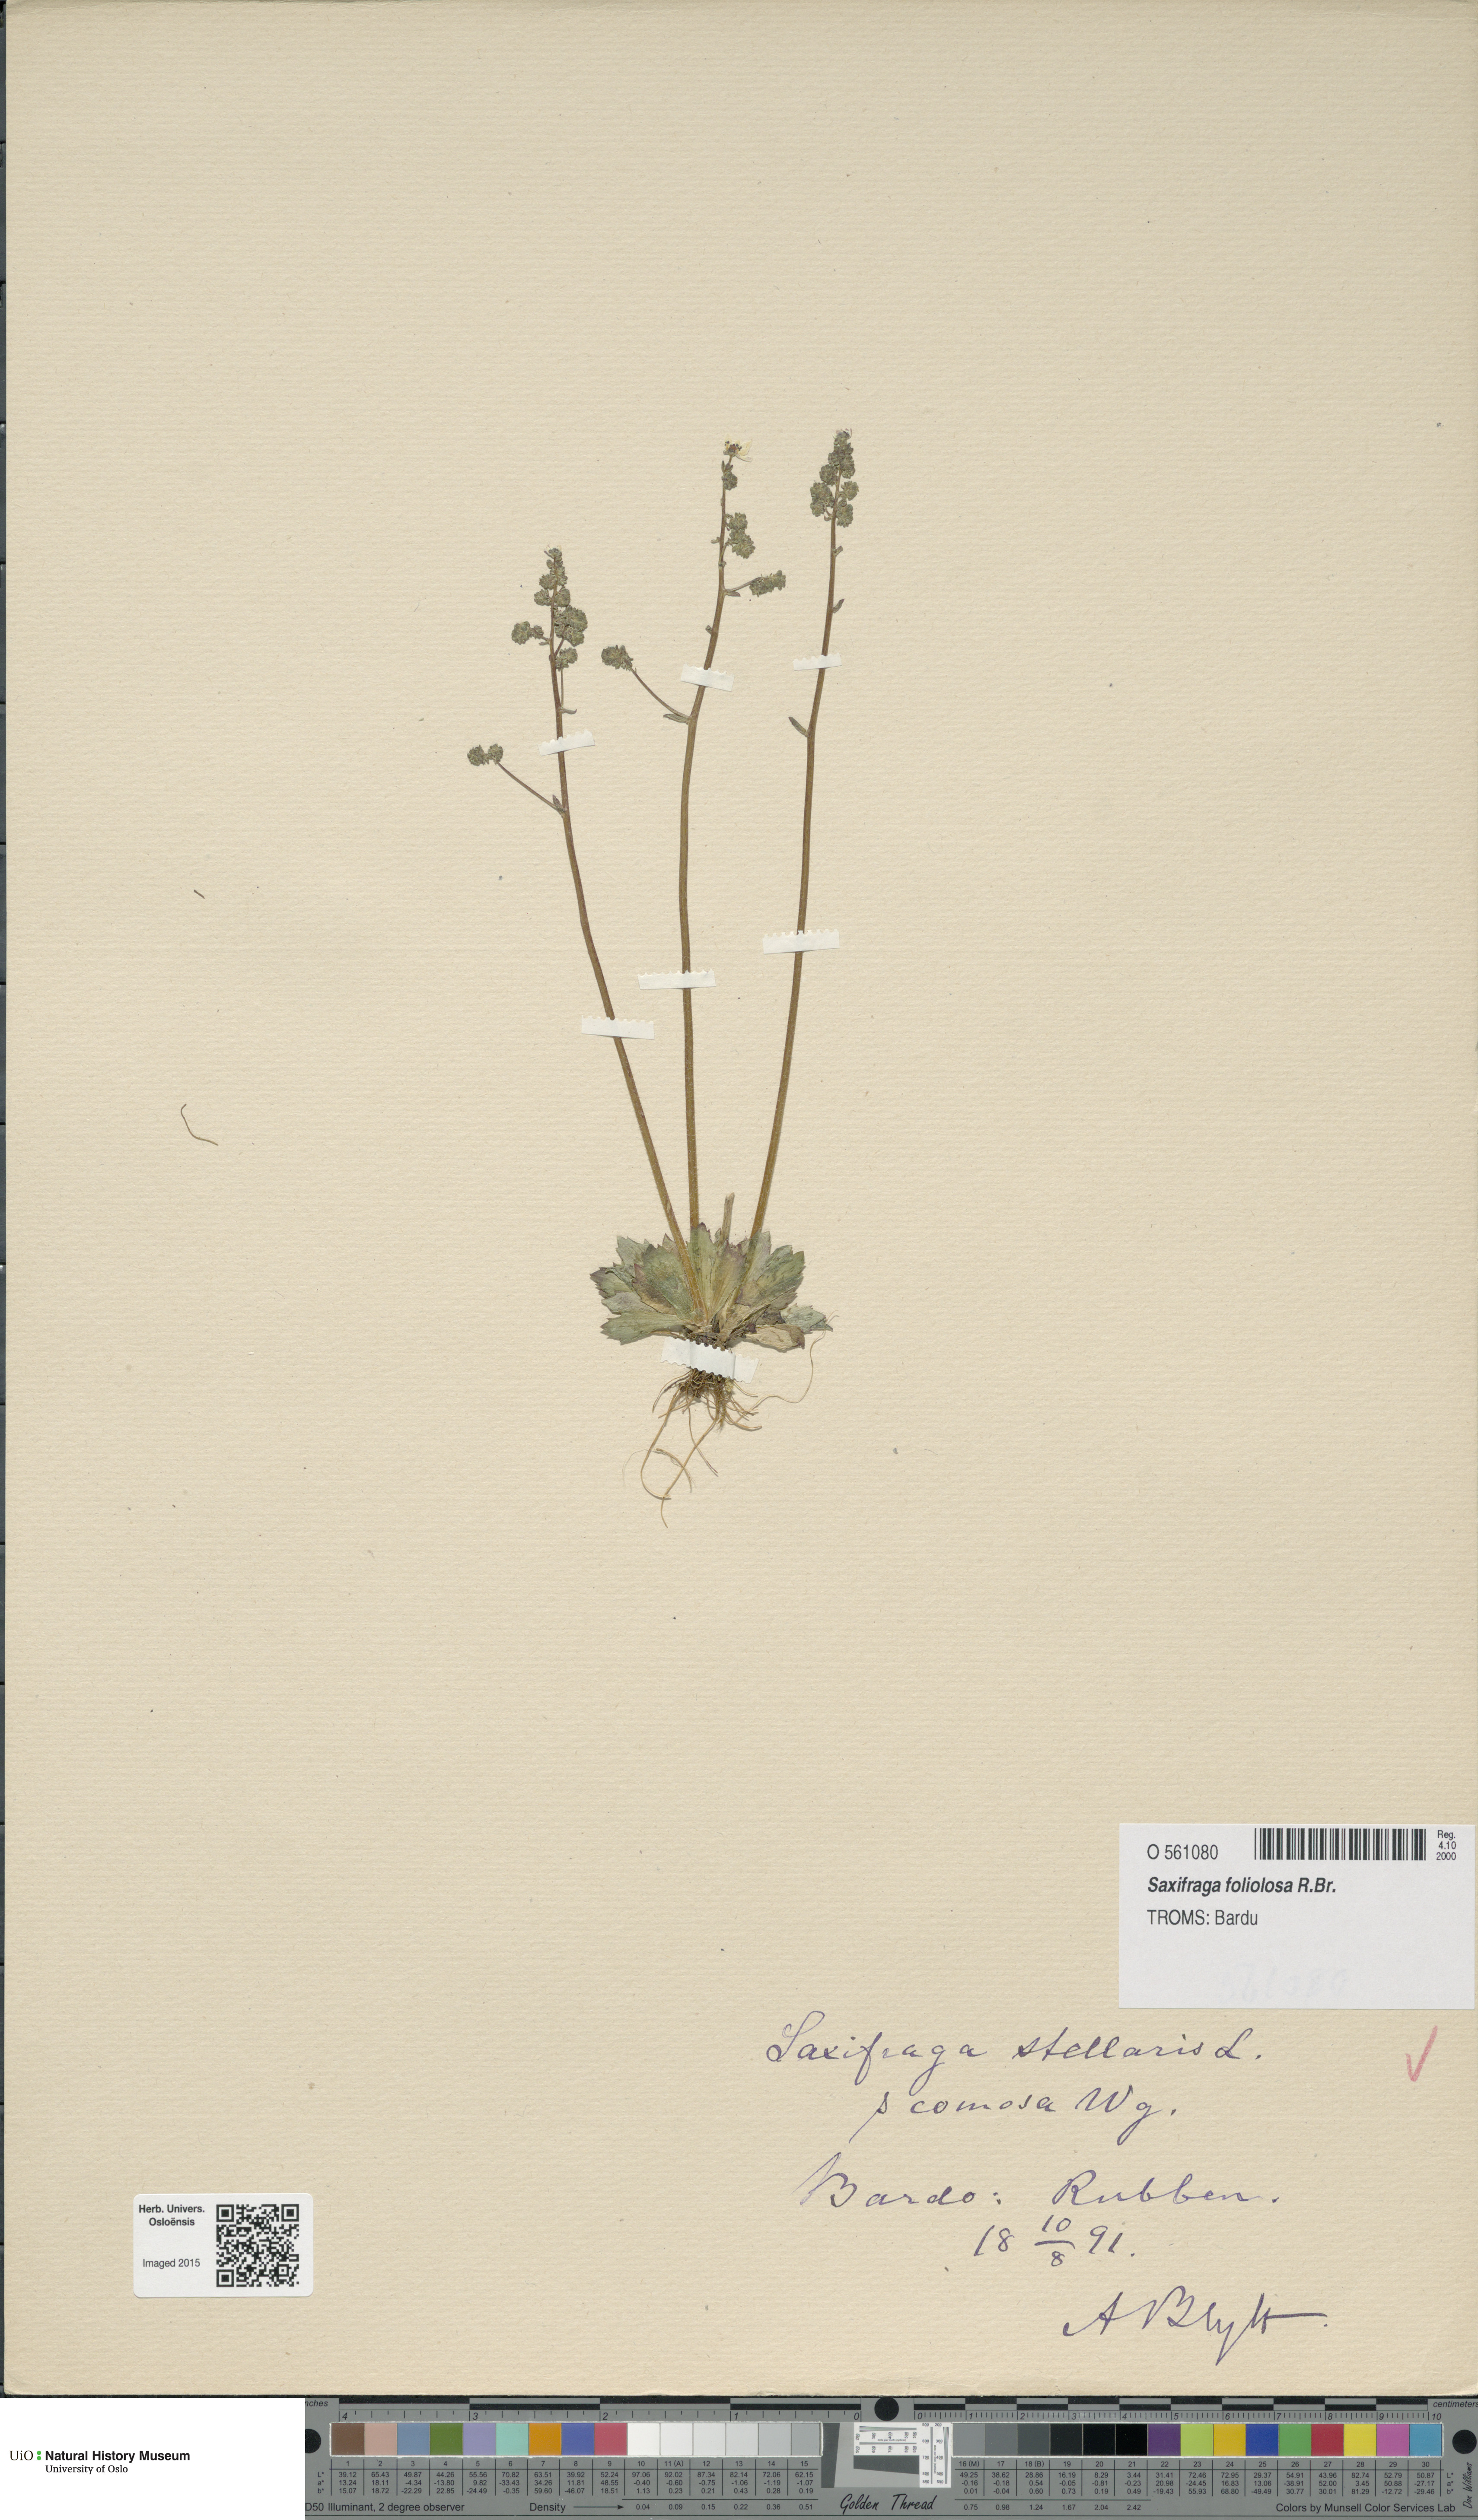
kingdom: Plantae
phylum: Tracheophyta
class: Magnoliopsida
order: Saxifragales
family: Saxifragaceae
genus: Micranthes
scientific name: Micranthes foliolosa
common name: Leafystem saxifrage
